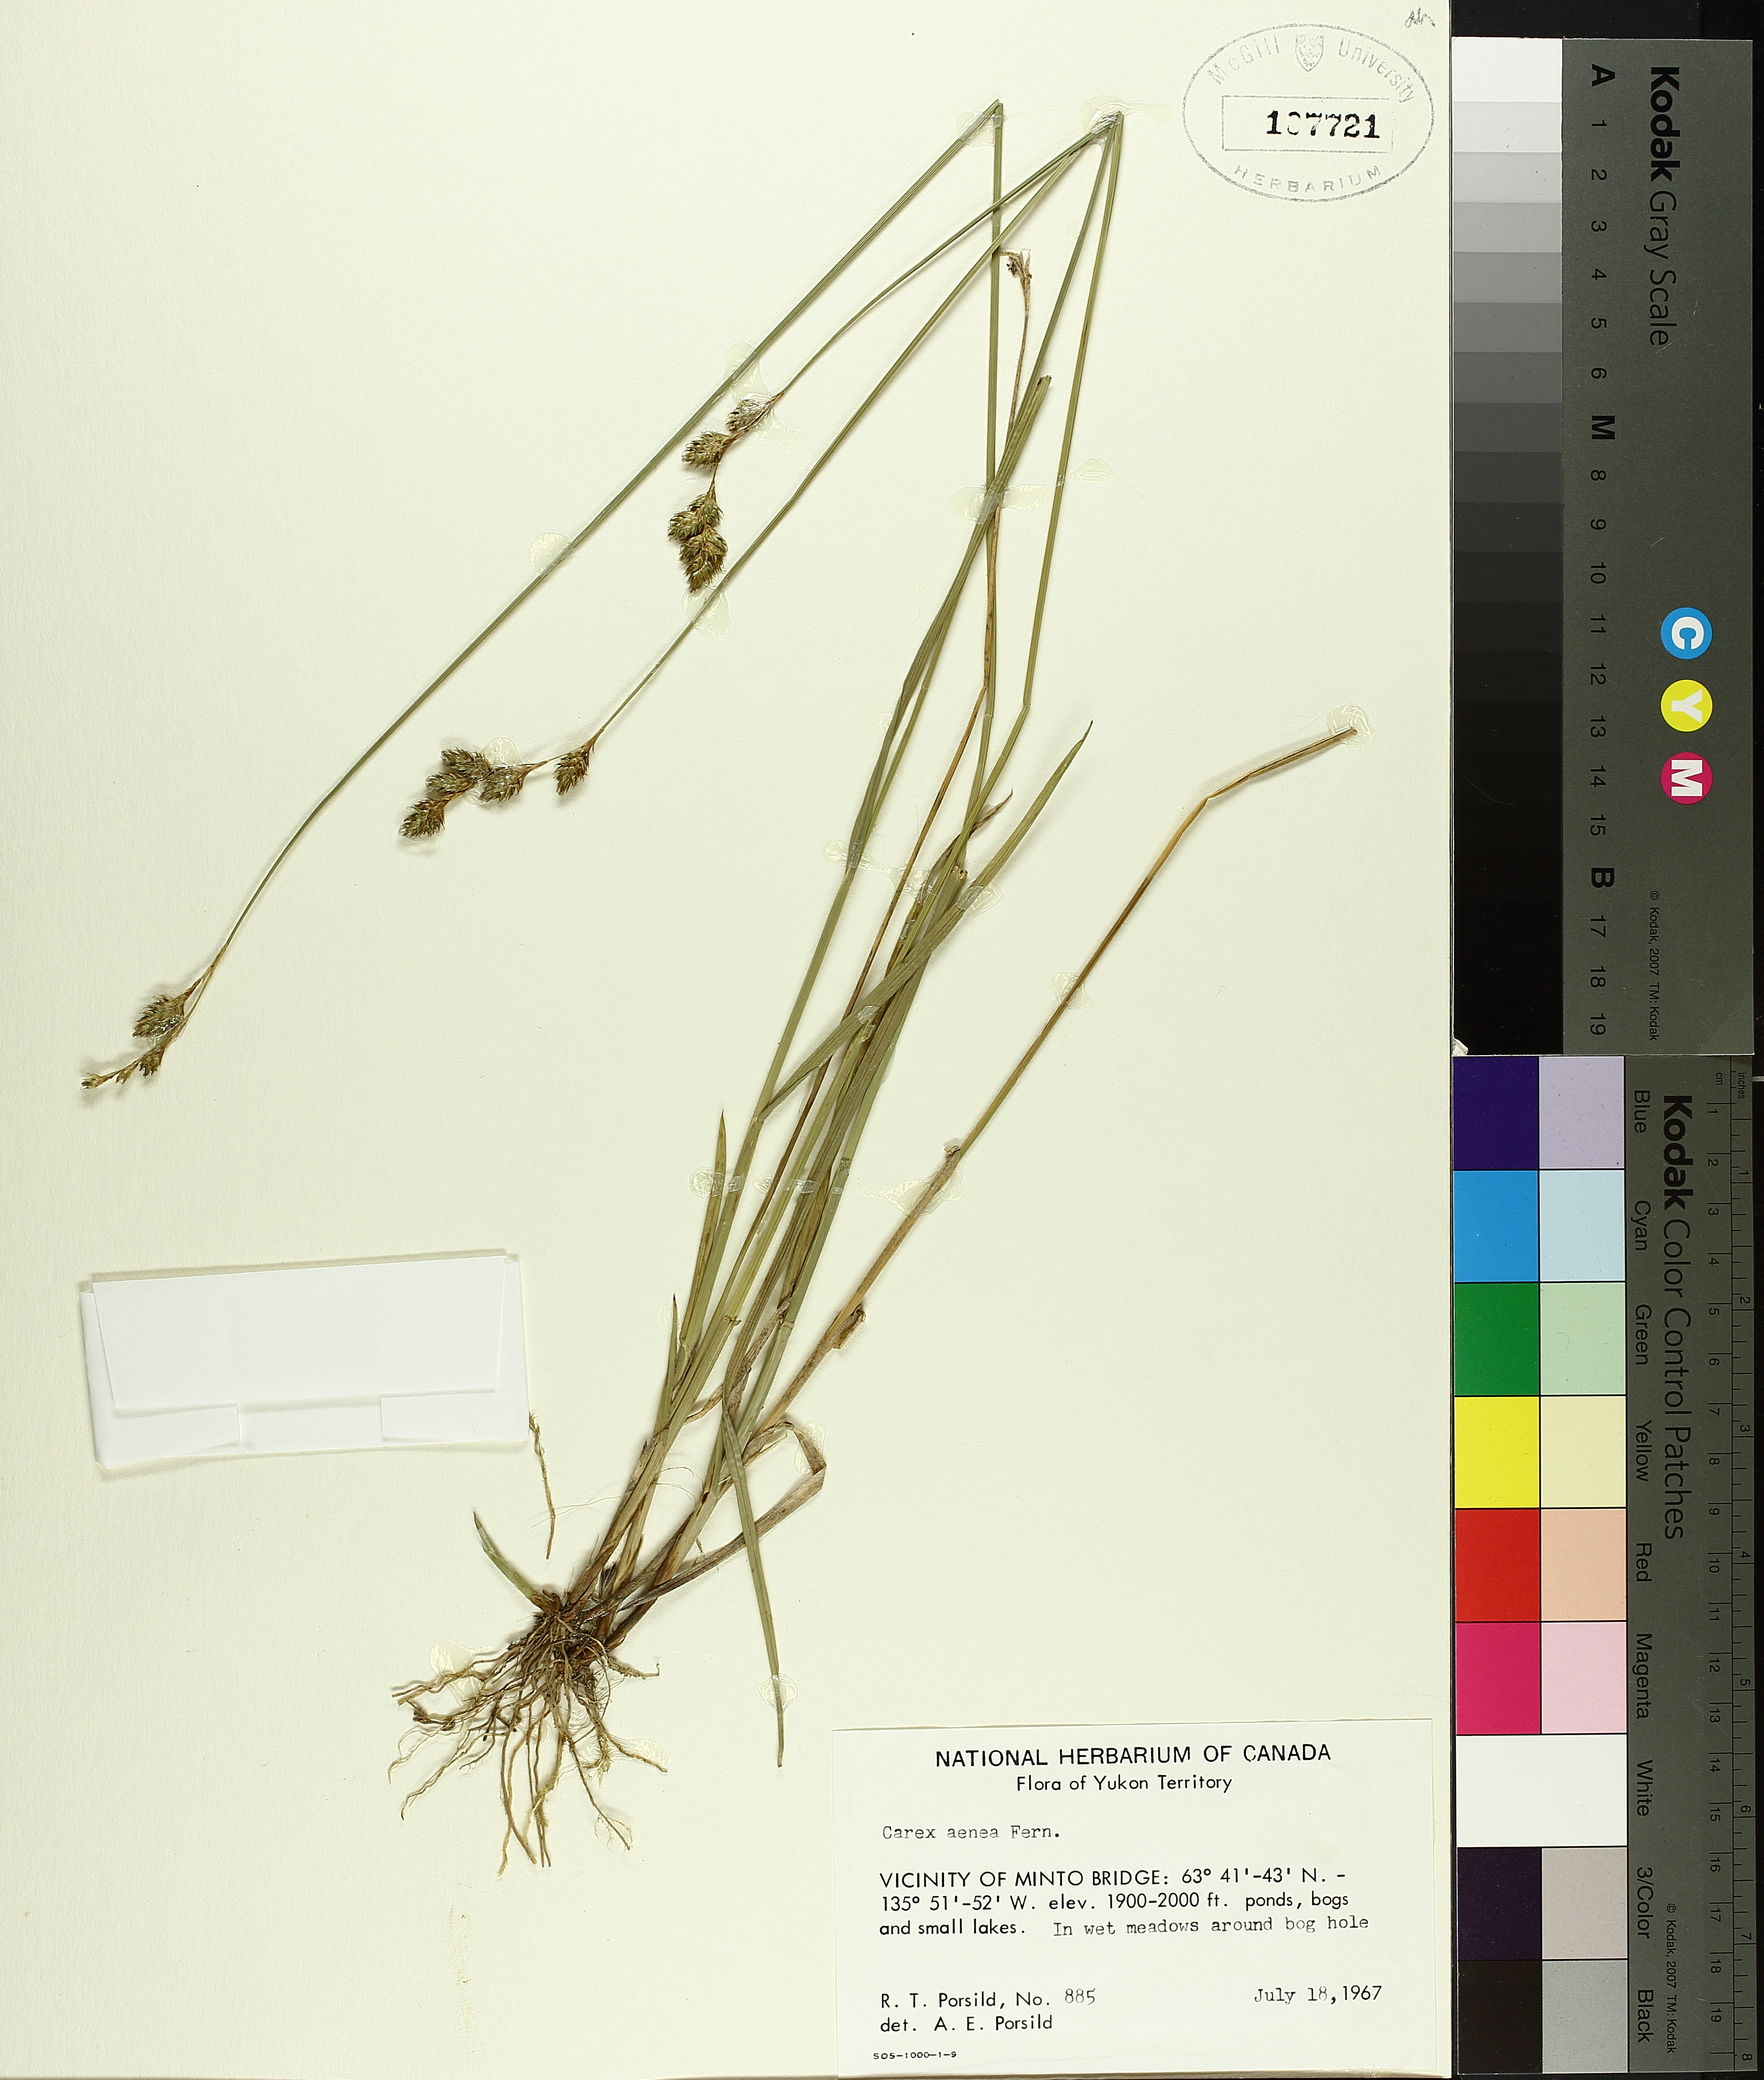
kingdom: Plantae
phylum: Tracheophyta
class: Liliopsida
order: Poales
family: Cyperaceae
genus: Carex
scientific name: Carex foenea
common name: Bronze sedge
